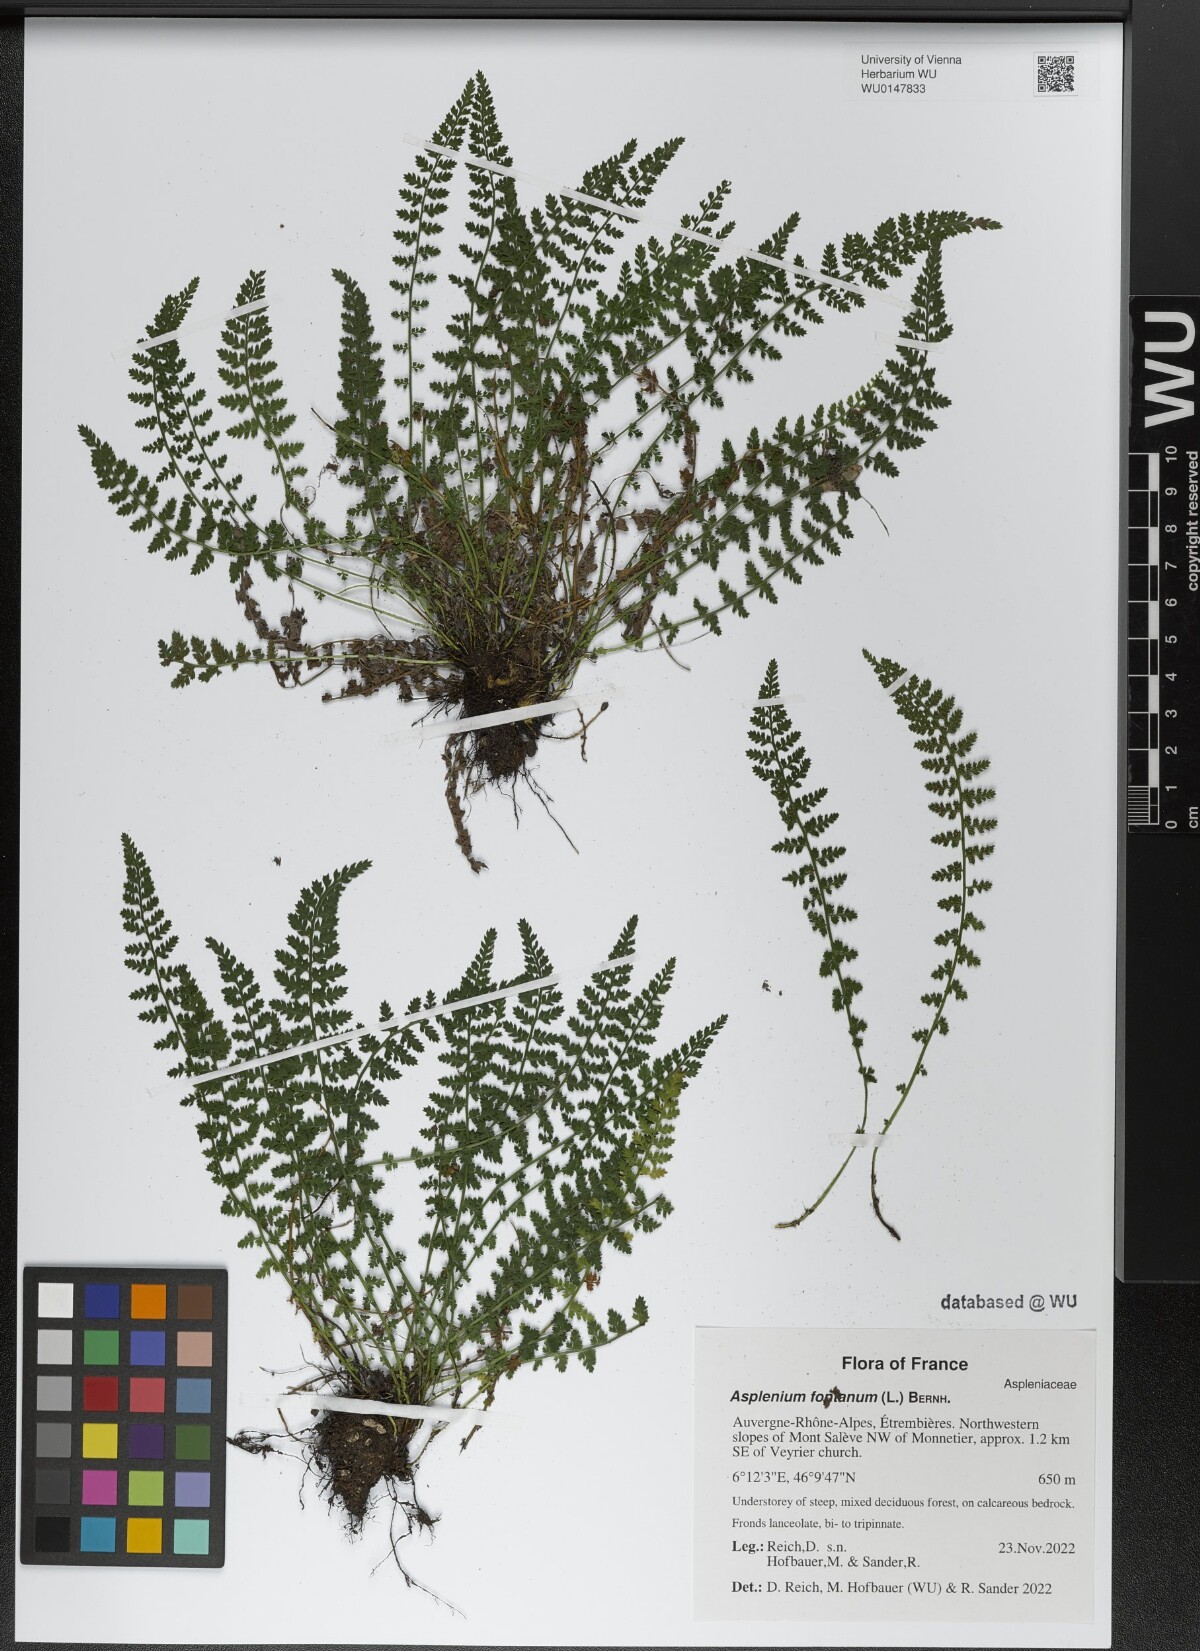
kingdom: Plantae
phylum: Tracheophyta
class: Polypodiopsida
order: Polypodiales
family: Aspleniaceae
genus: Asplenium
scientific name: Asplenium fontanum
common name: Fountain spleenwort
